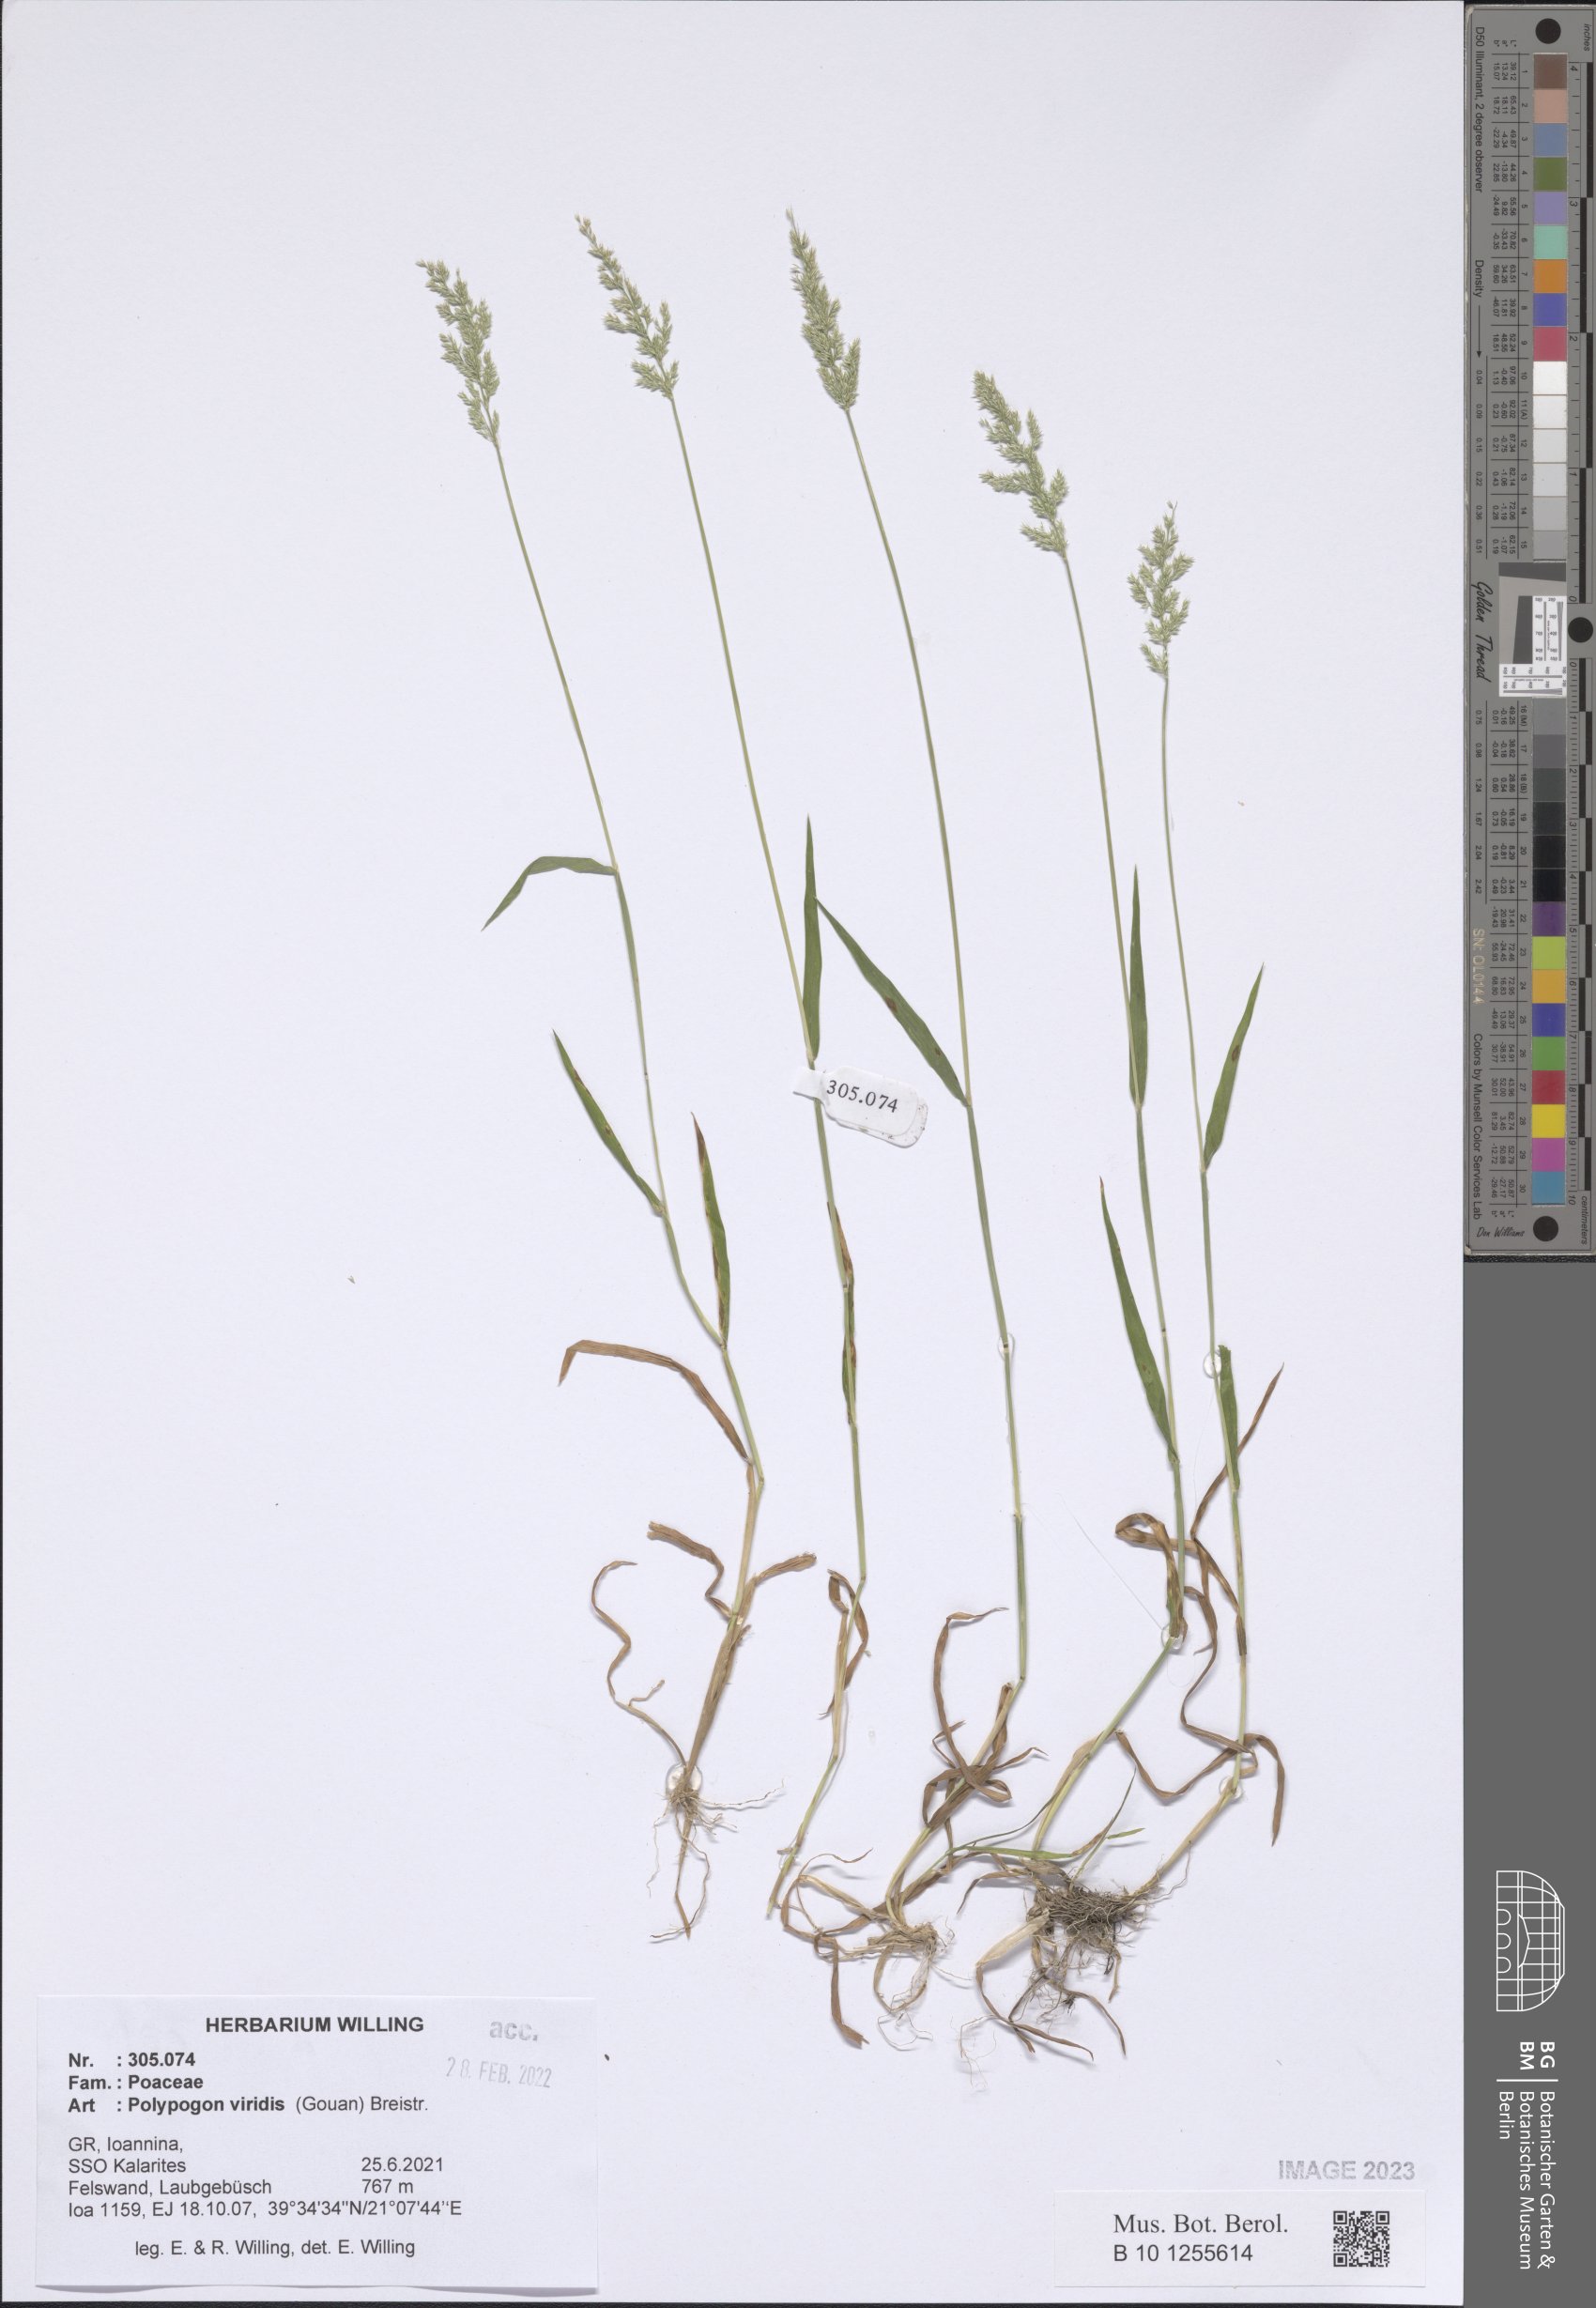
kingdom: Plantae
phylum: Tracheophyta
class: Liliopsida
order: Poales
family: Poaceae
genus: Polypogon
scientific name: Polypogon viridis
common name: Water bent
